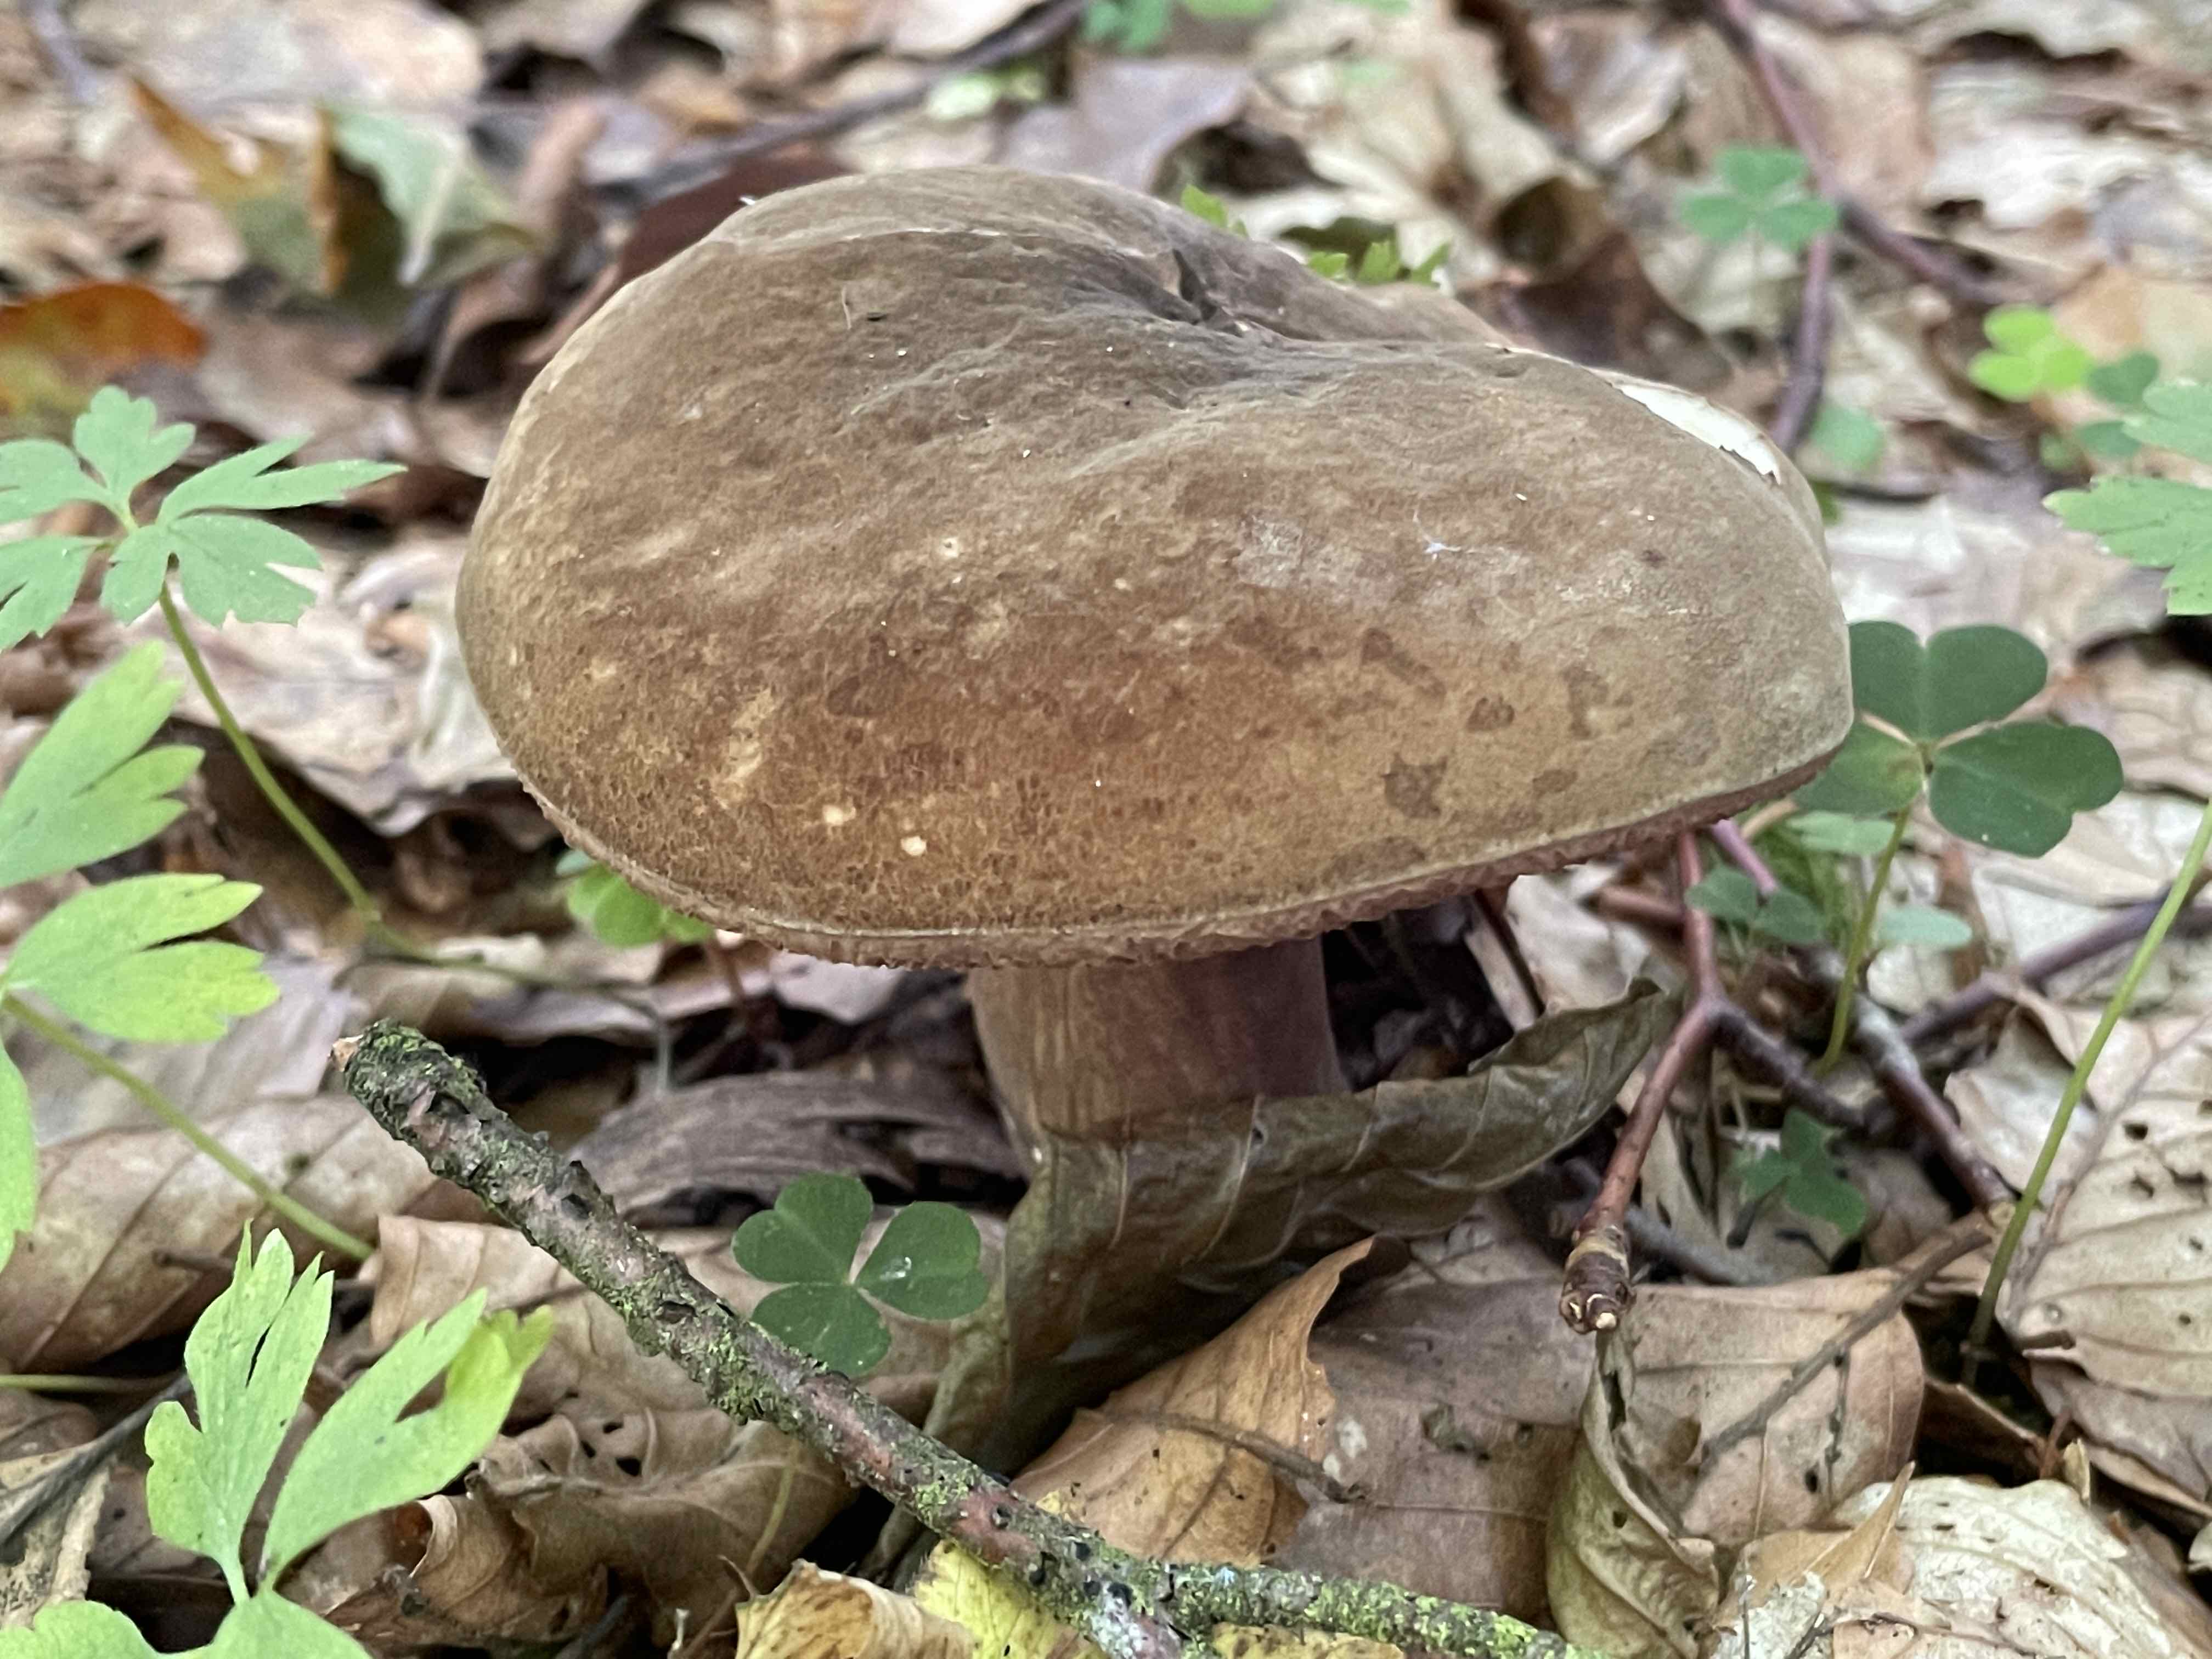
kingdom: Fungi
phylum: Basidiomycota
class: Agaricomycetes
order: Boletales
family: Boletaceae
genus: Porphyrellus
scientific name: Porphyrellus porphyrosporus
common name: sodrørhat
